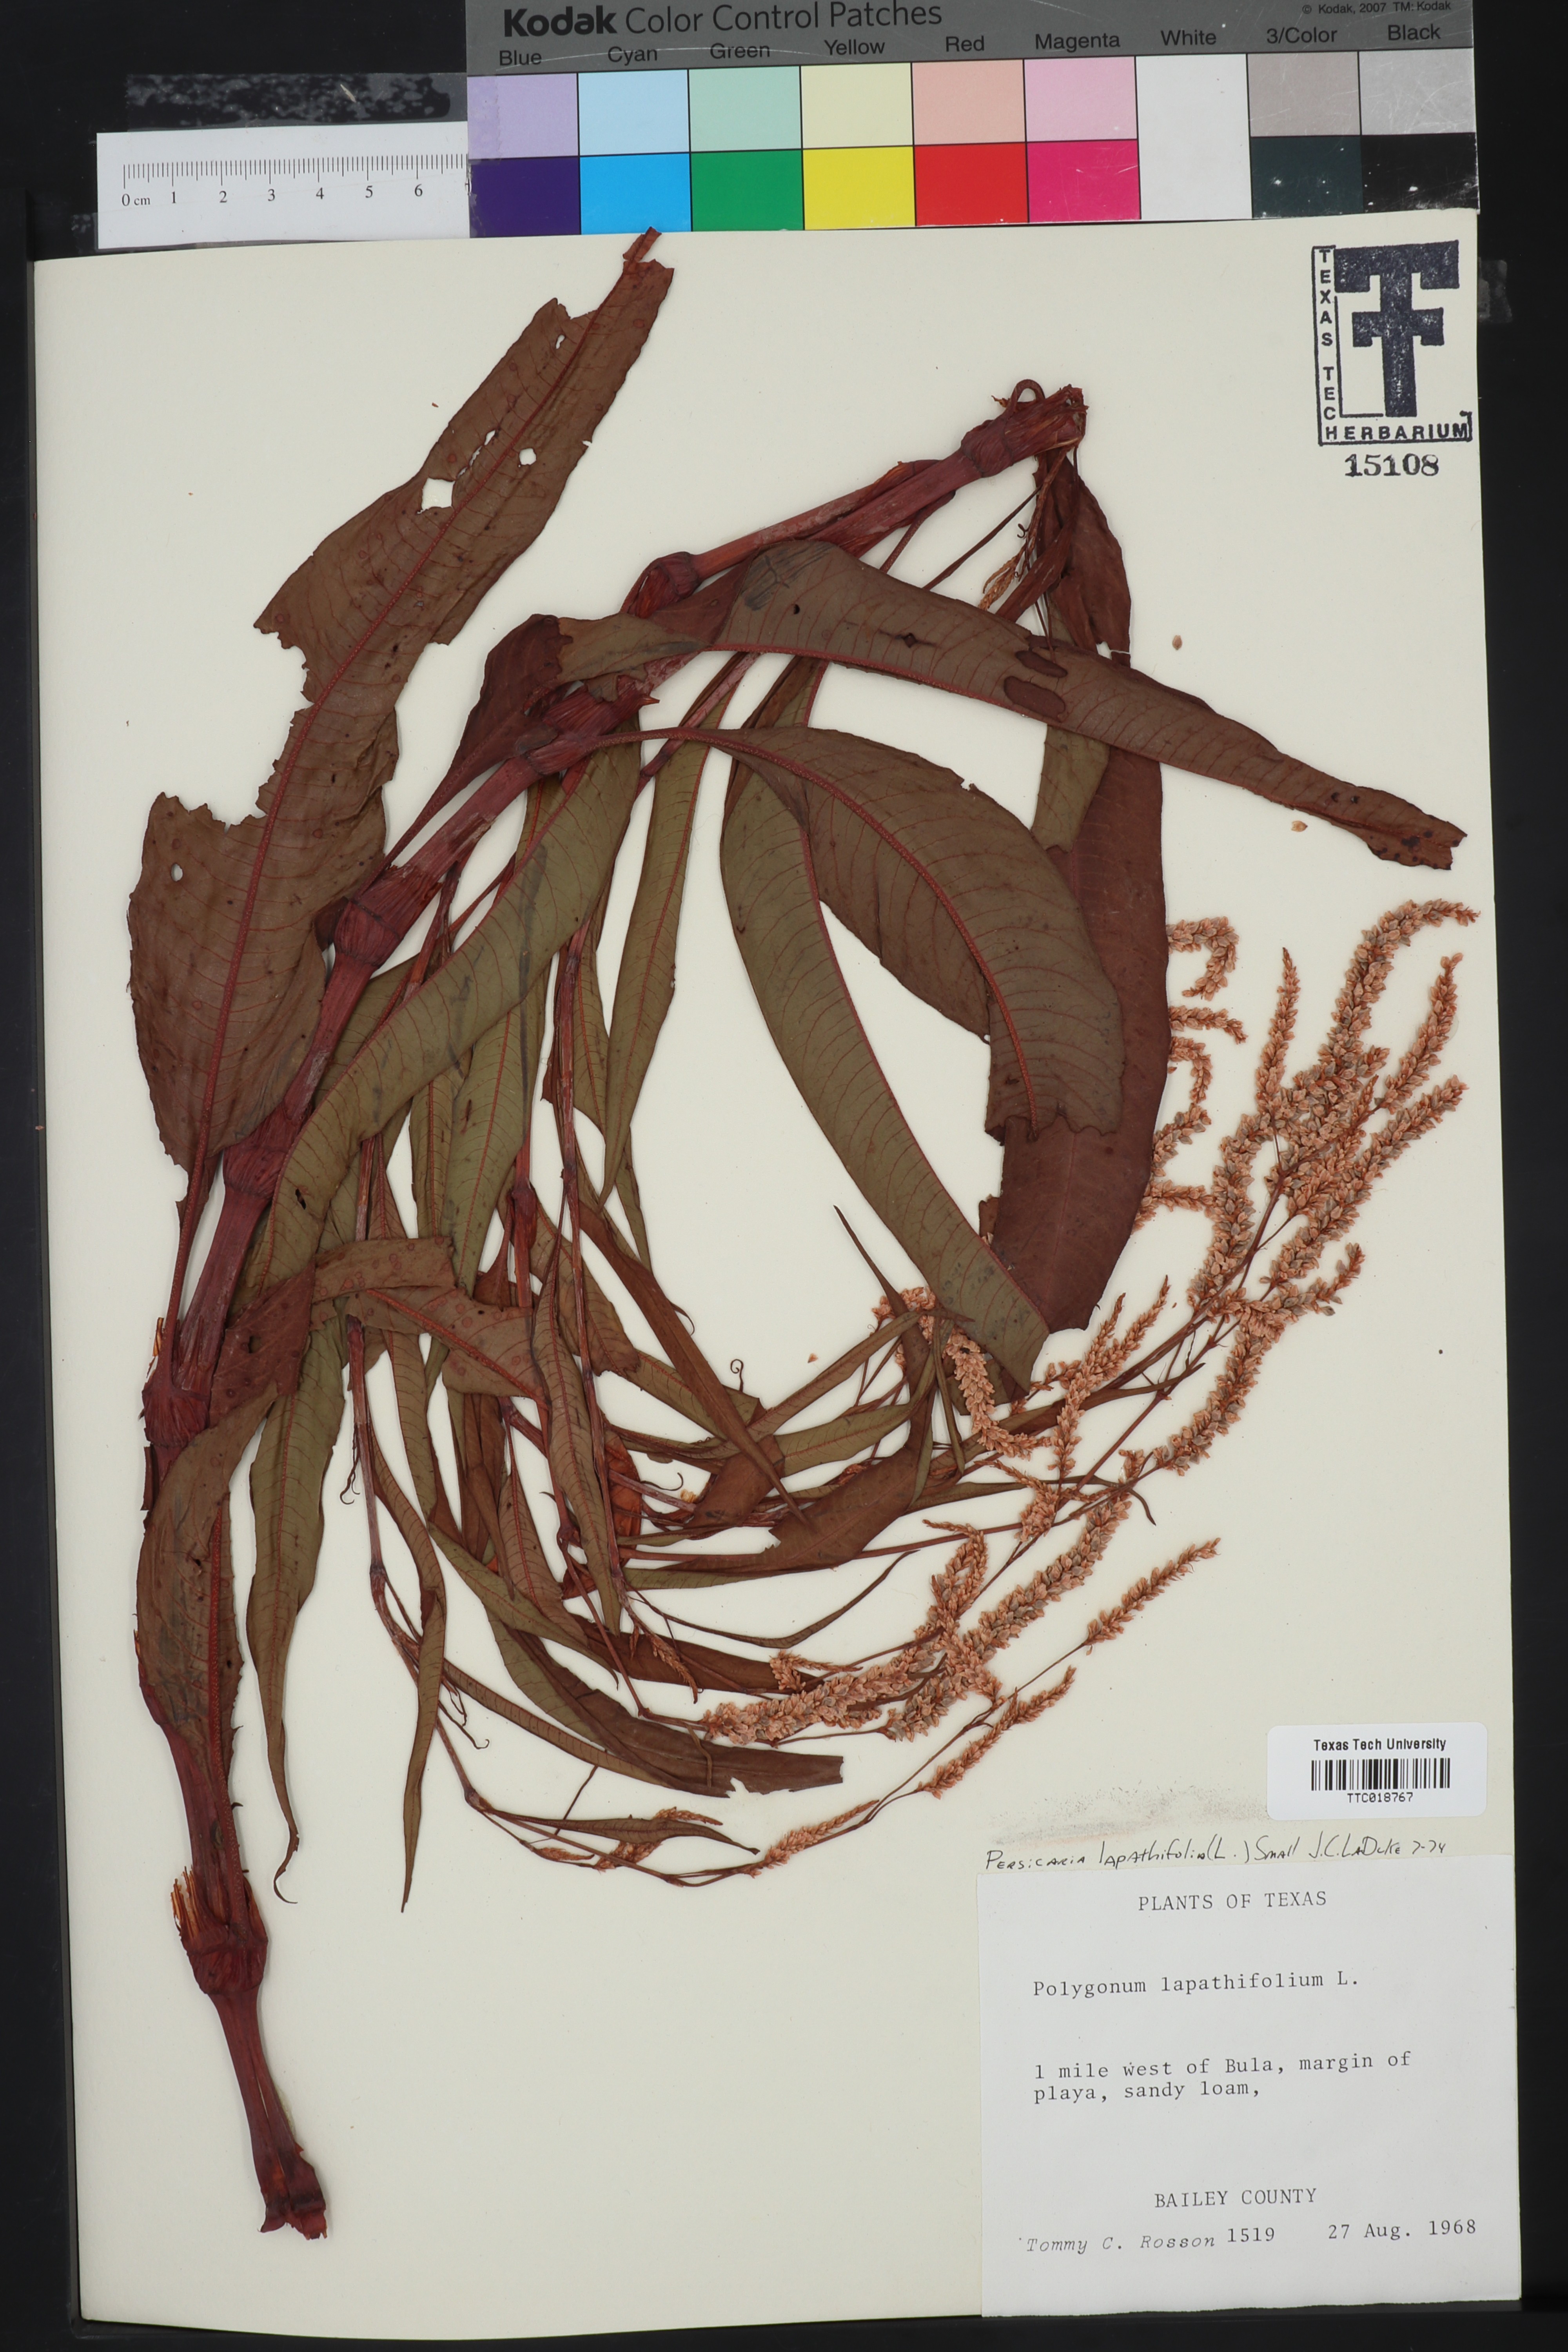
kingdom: Plantae
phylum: Tracheophyta
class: Magnoliopsida
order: Caryophyllales
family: Polygonaceae
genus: Persicaria
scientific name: Persicaria lapathifolia
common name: Curlytop knotweed
